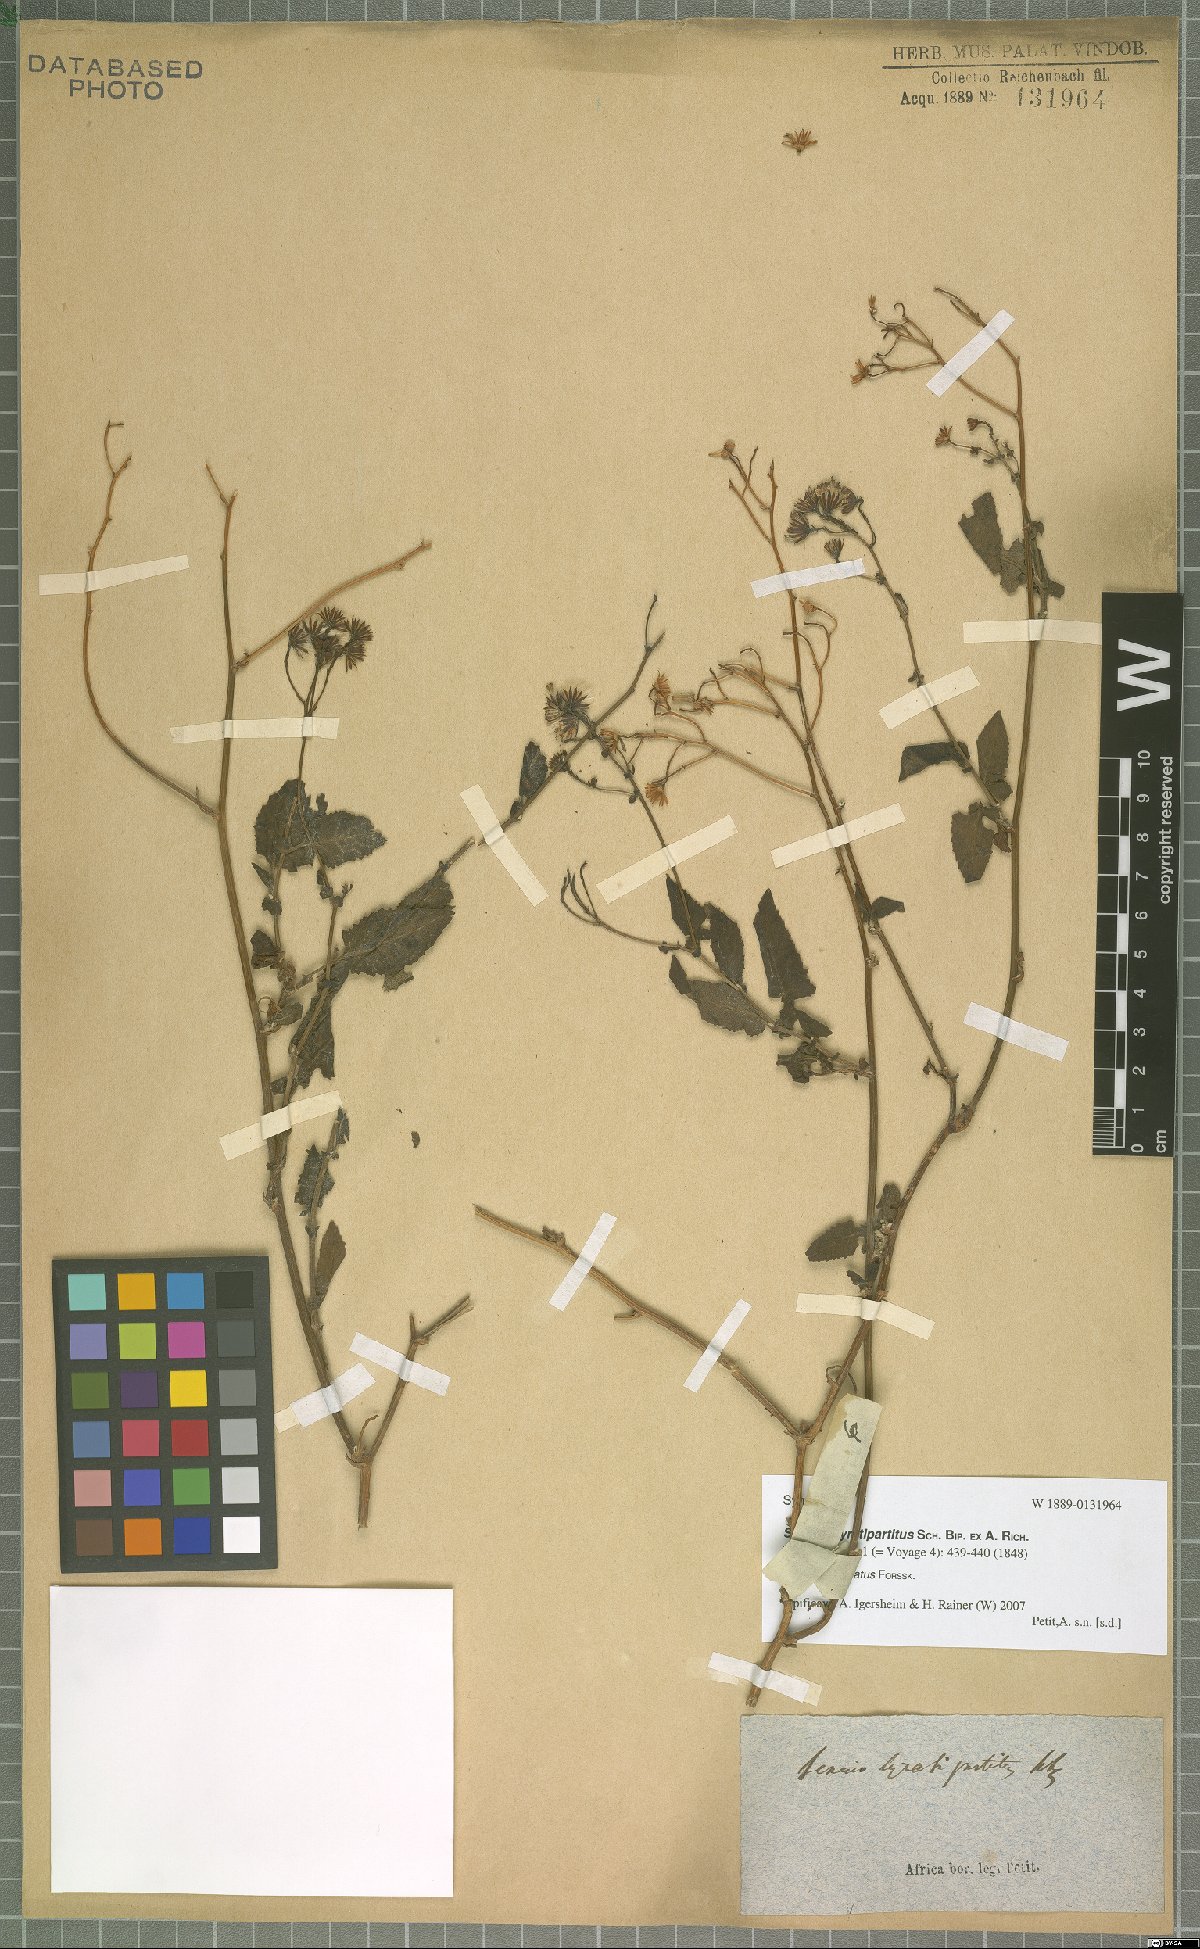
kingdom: Plantae
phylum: Tracheophyta
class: Magnoliopsida
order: Asterales
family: Asteraceae
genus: Senecio
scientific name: Senecio lyratus
